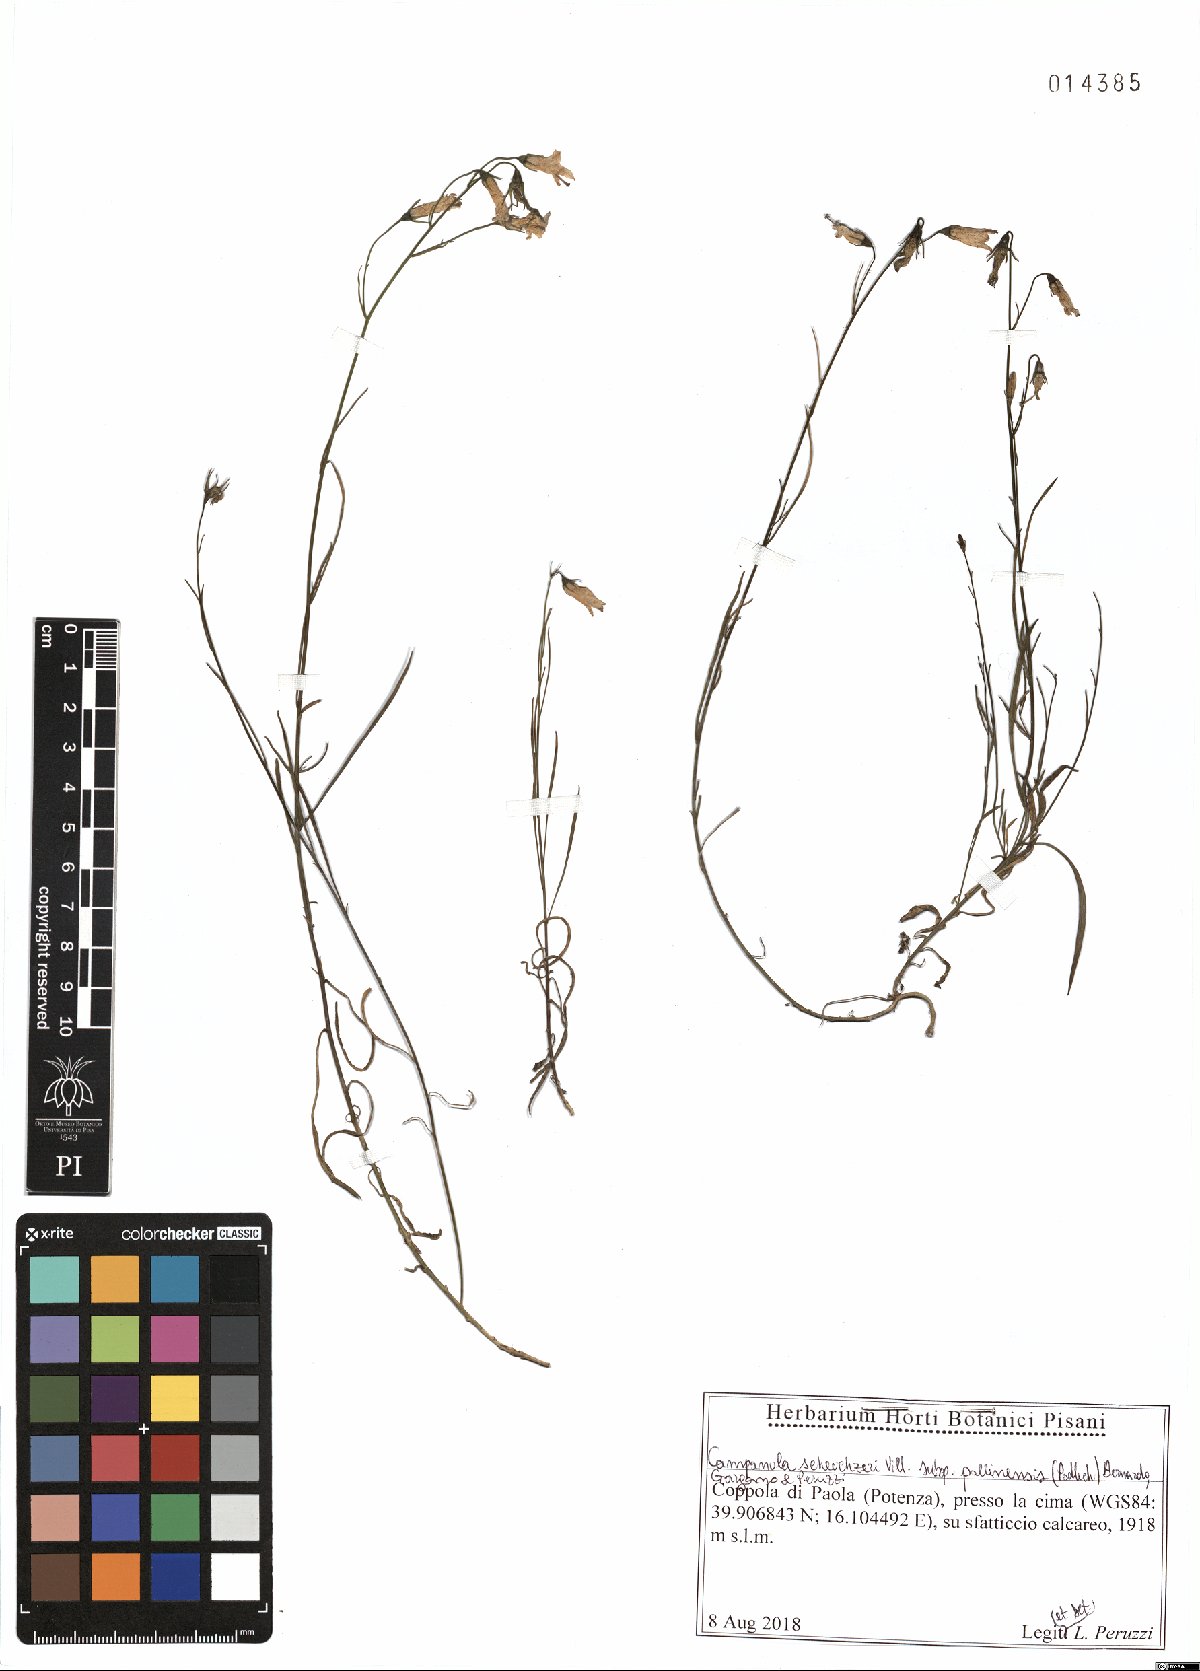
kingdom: Plantae
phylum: Tracheophyta
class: Magnoliopsida
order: Asterales
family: Campanulaceae
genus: Campanula
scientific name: Campanula pollinensis
